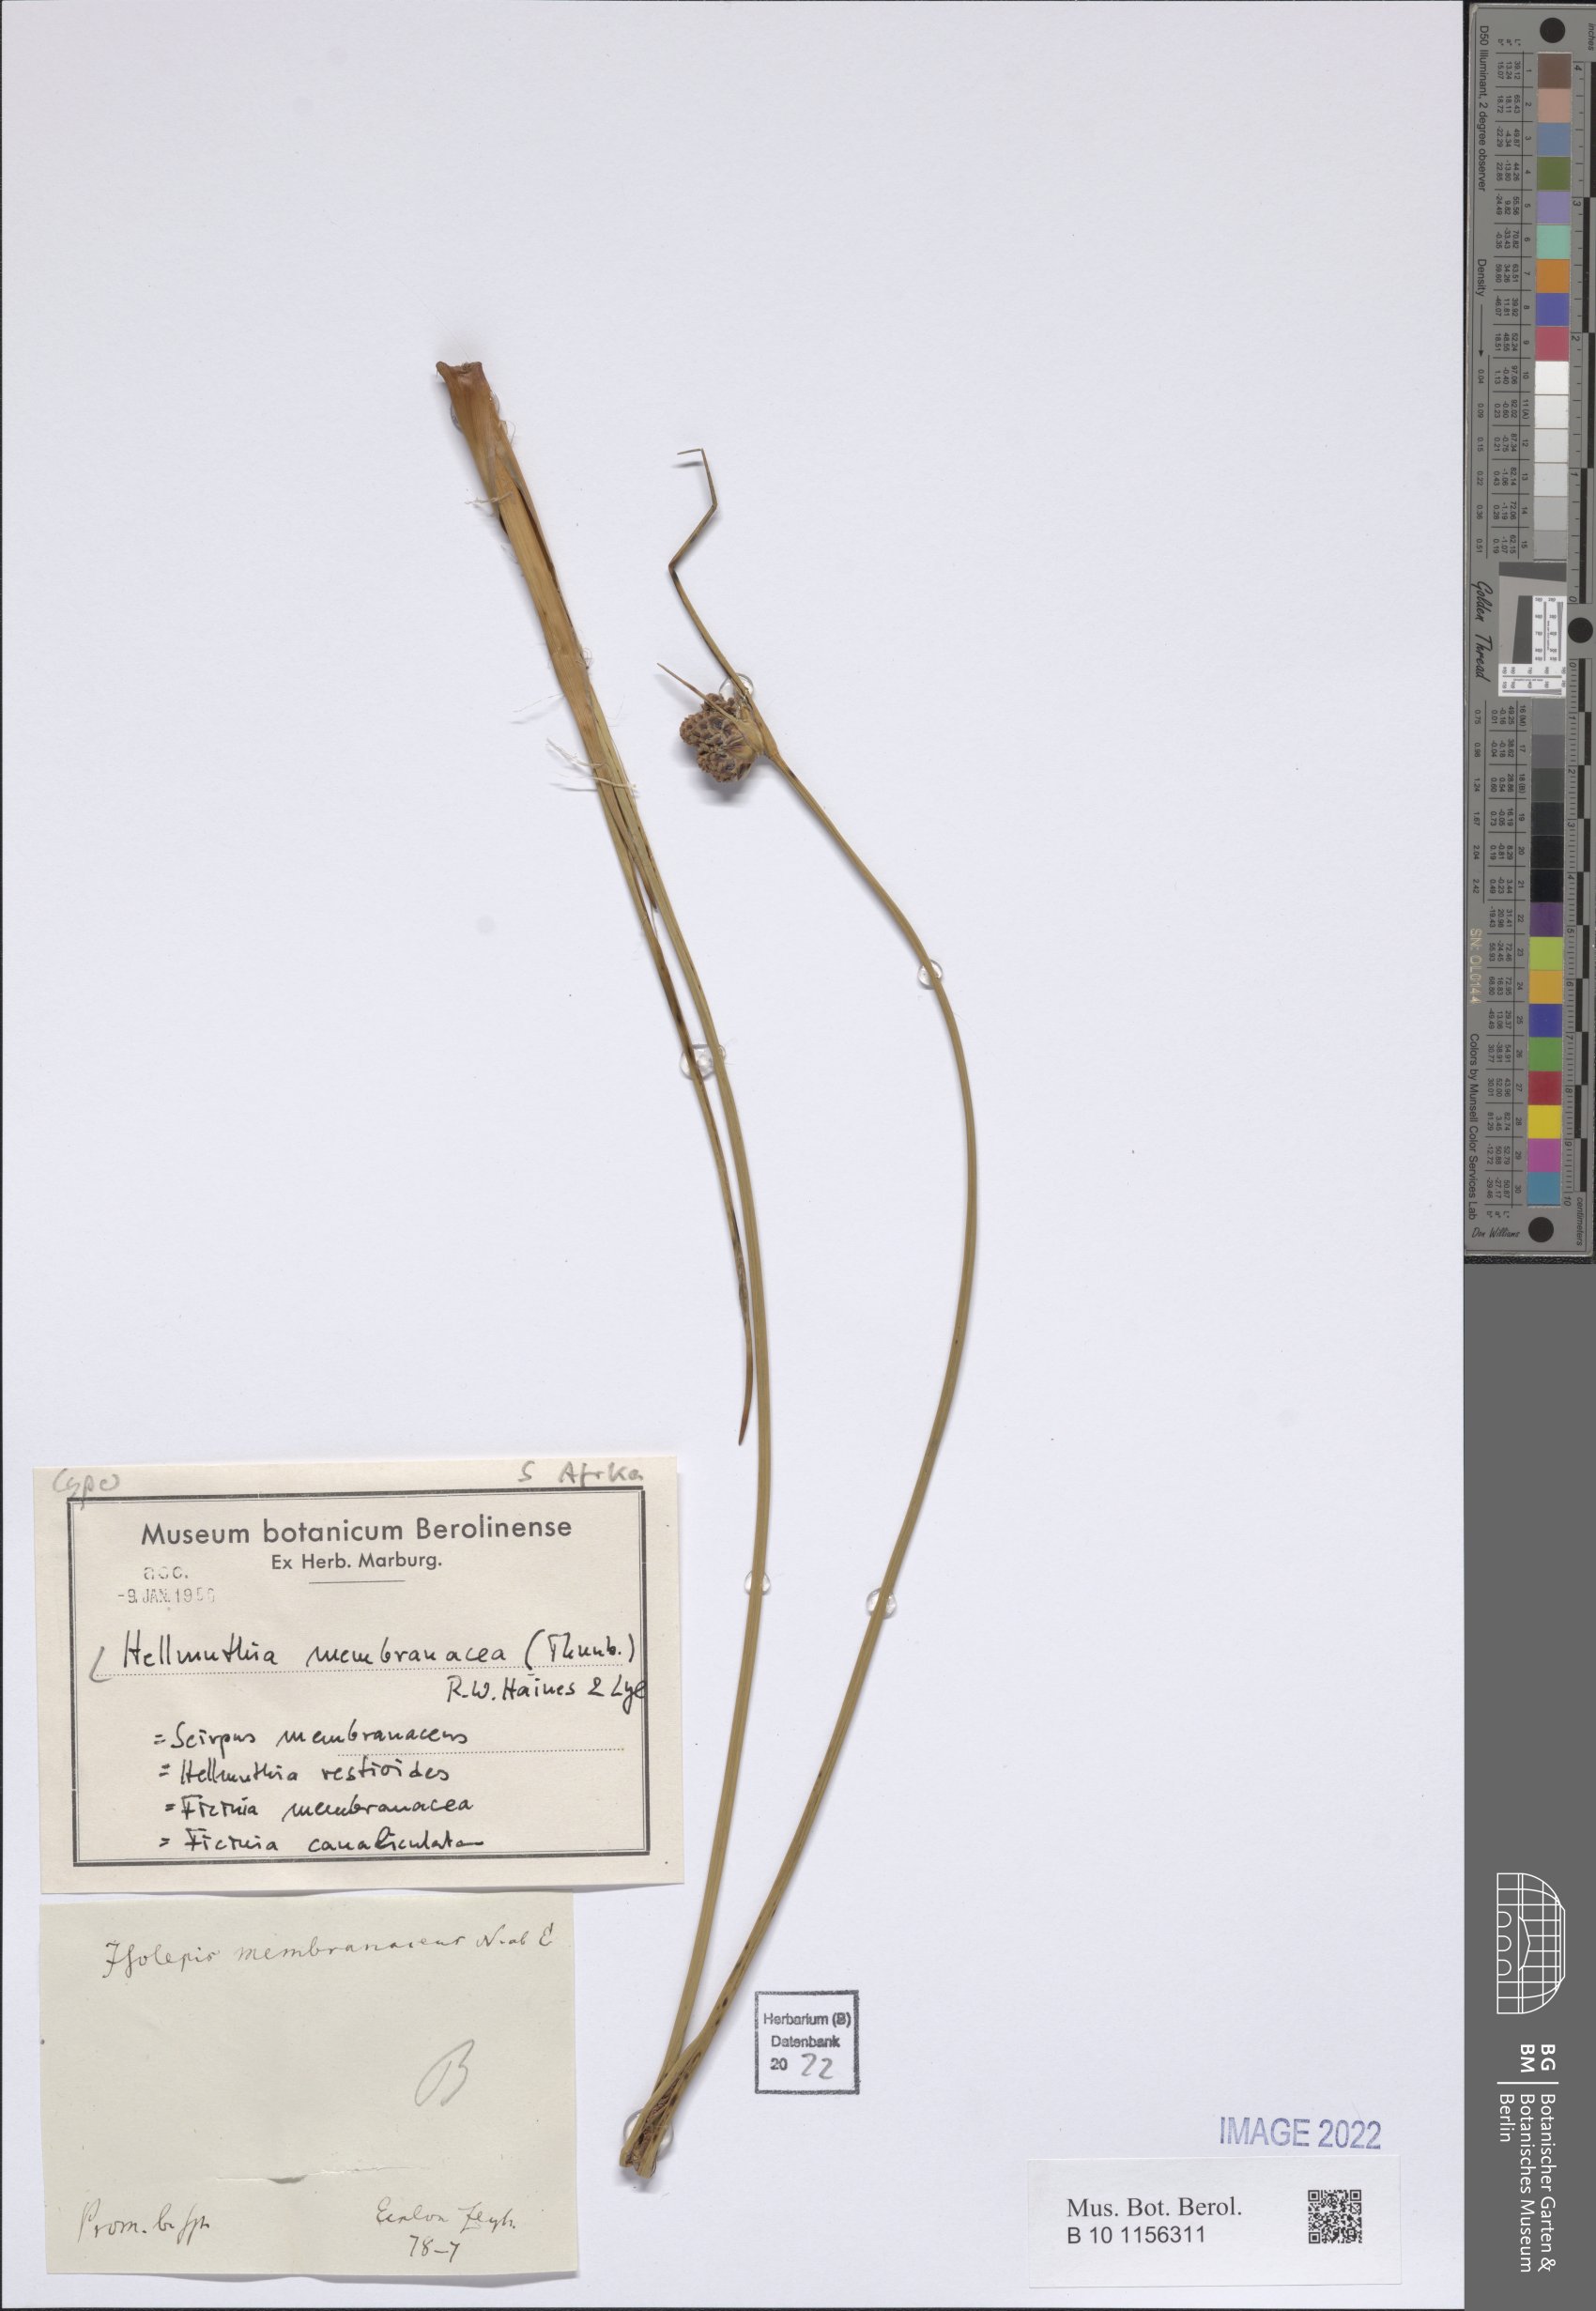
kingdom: Plantae
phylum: Tracheophyta
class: Liliopsida
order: Poales
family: Cyperaceae
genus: Hellmuthia
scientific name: Hellmuthia membranacea
